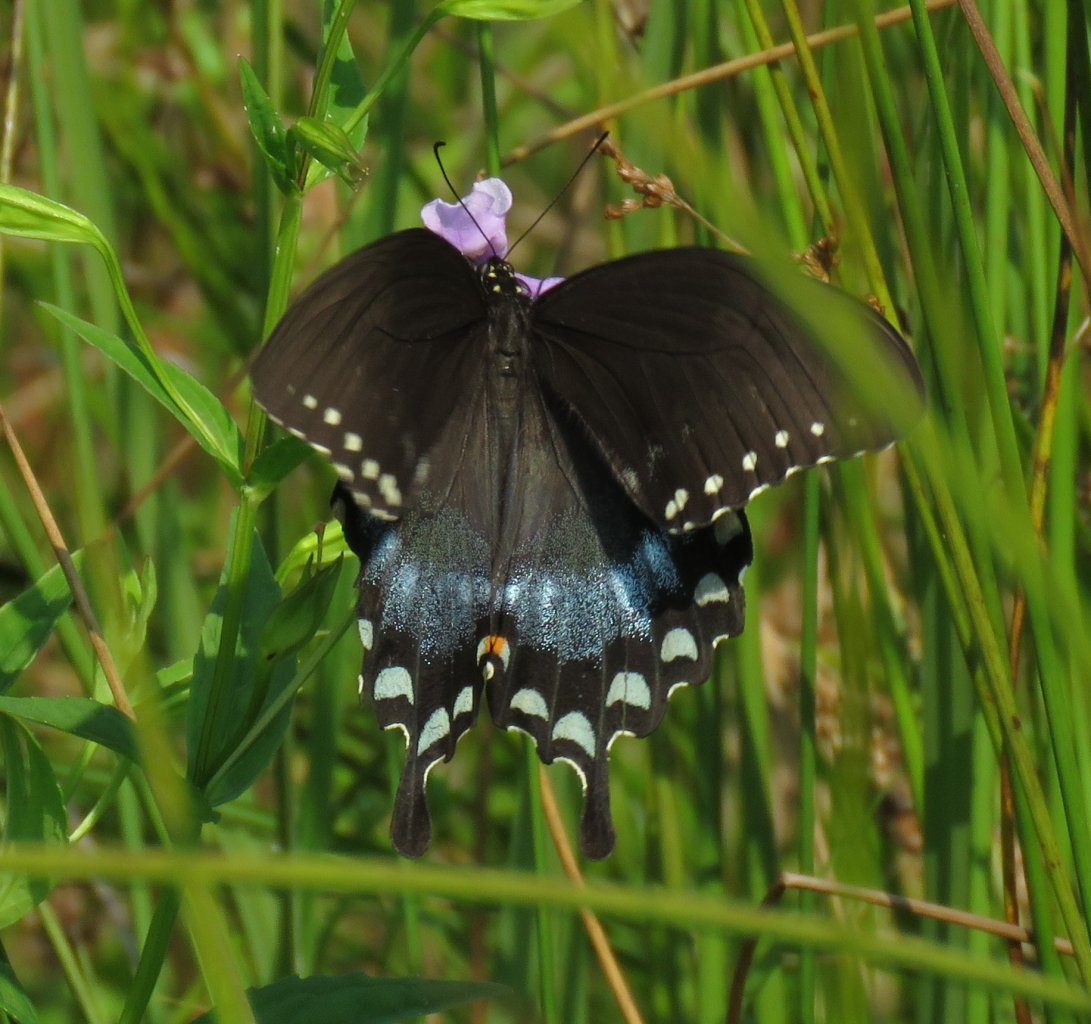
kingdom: Animalia
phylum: Arthropoda
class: Insecta
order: Lepidoptera
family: Papilionidae
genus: Pterourus
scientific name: Pterourus troilus
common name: Spicebush Swallowtail
